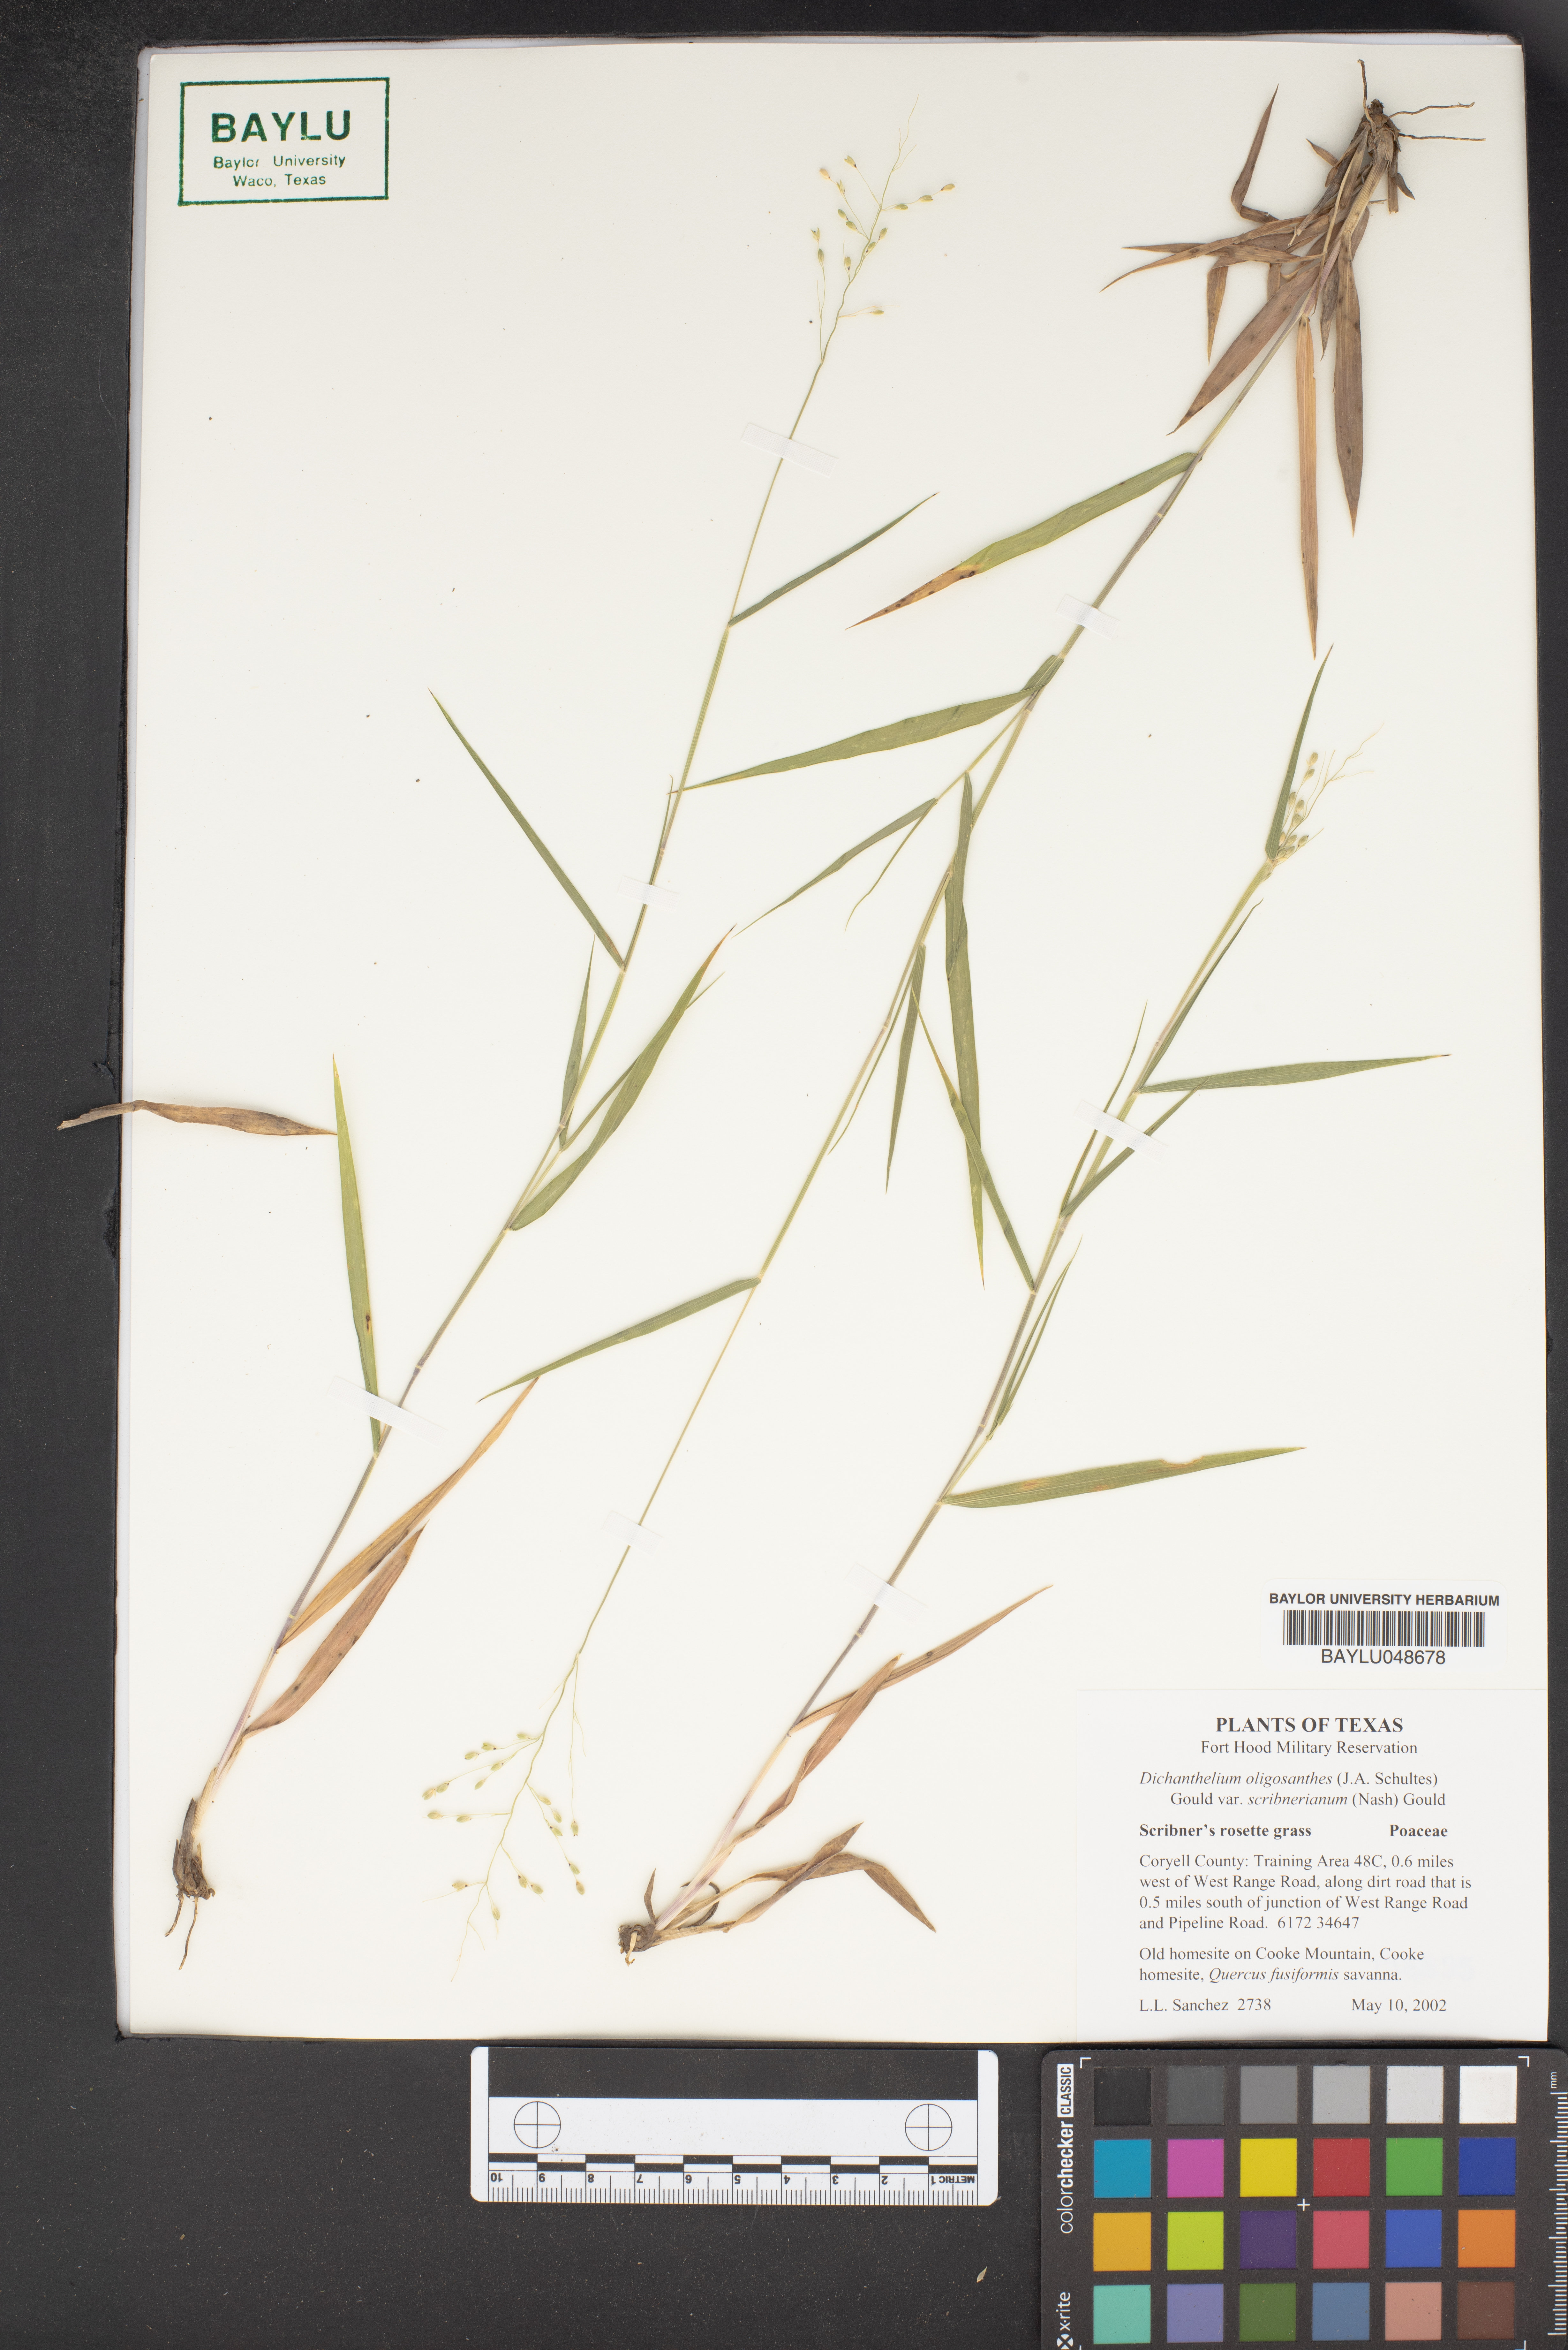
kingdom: Plantae
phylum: Tracheophyta
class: Liliopsida
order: Poales
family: Poaceae
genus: Dichanthelium
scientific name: Dichanthelium scribnerianum
